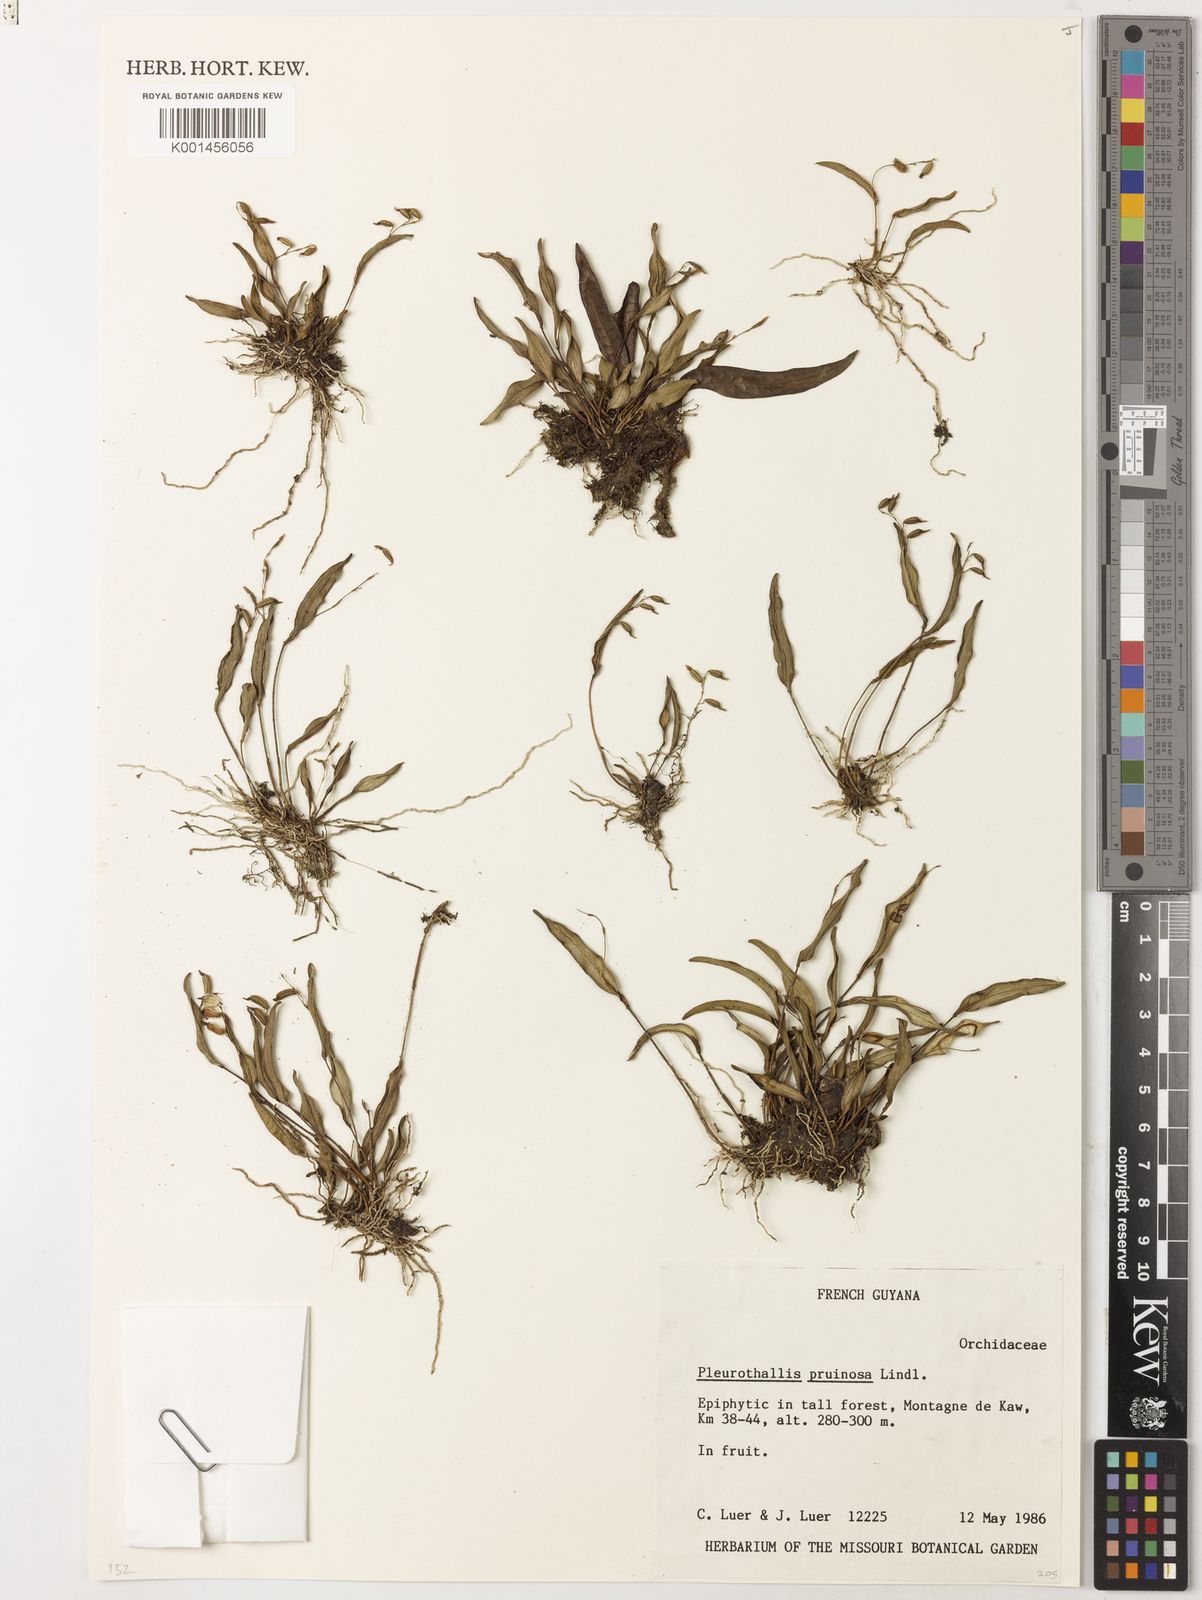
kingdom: Plantae
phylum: Tracheophyta
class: Liliopsida
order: Asparagales
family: Orchidaceae
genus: Pleurothallis
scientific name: Pleurothallis pruinosa
